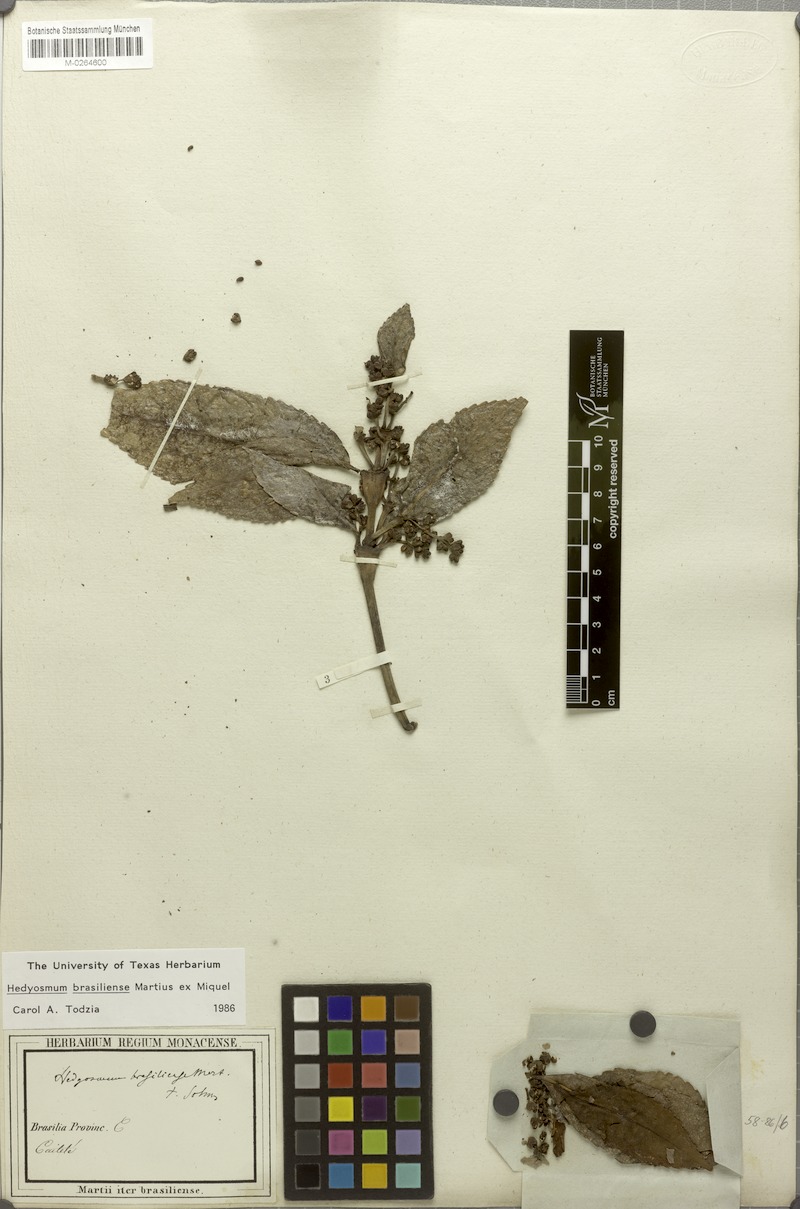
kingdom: Plantae
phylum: Tracheophyta
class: Magnoliopsida
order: Chloranthales
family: Chloranthaceae
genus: Hedyosmum
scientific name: Hedyosmum brasiliense
